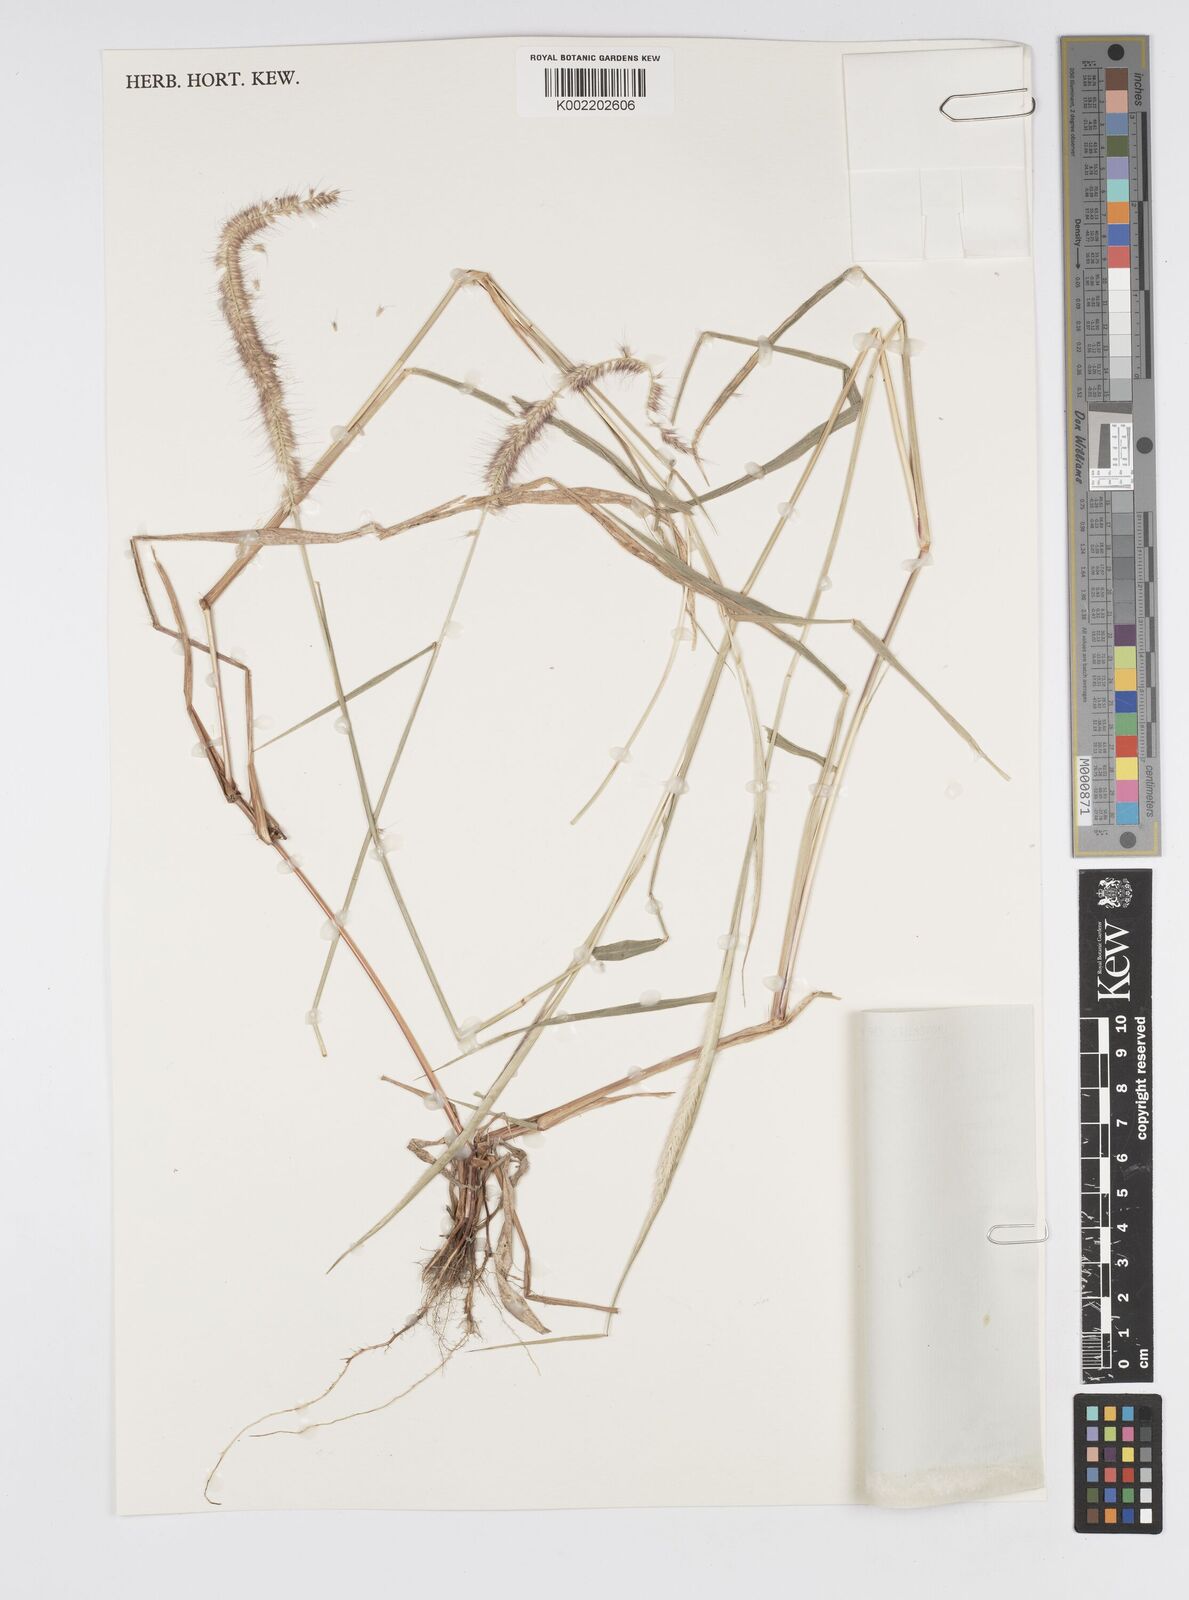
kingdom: Plantae
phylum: Tracheophyta
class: Liliopsida
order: Poales
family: Poaceae
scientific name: Poaceae
